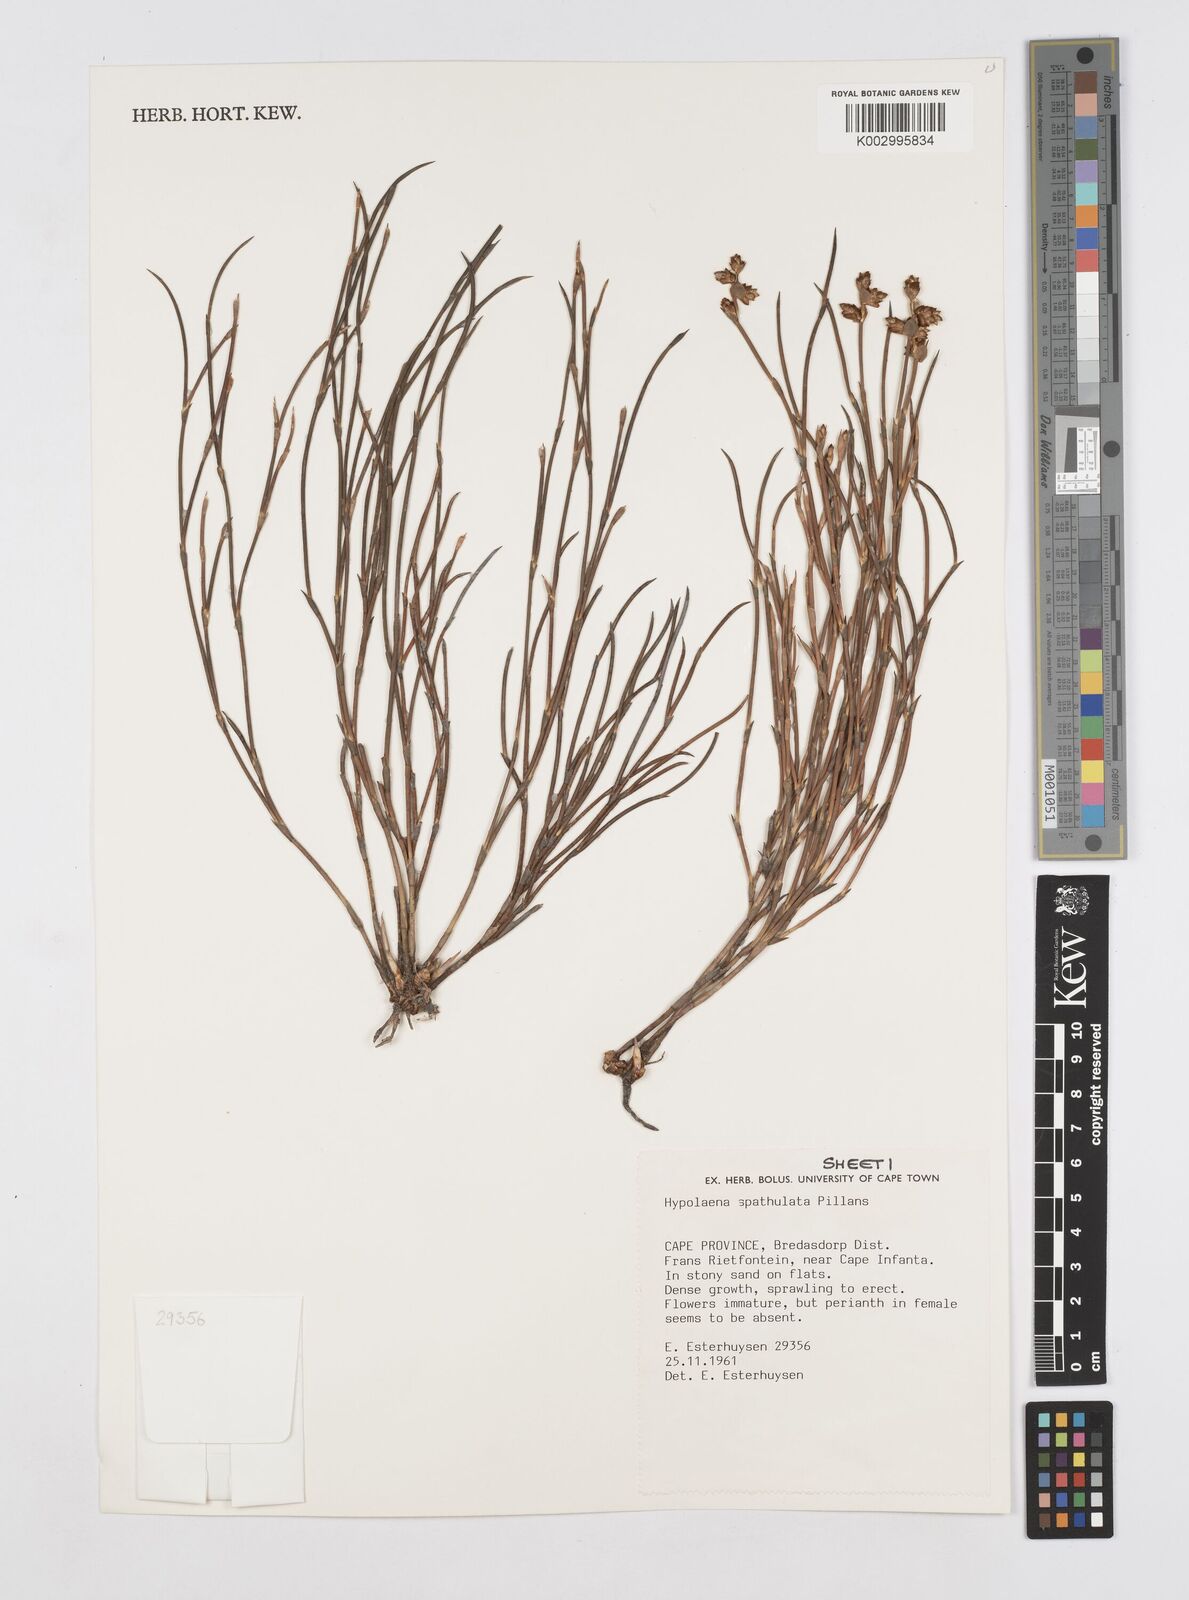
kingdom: Plantae
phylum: Tracheophyta
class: Liliopsida
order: Poales
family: Restionaceae
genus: Mastersiella
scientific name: Mastersiella spathulata
